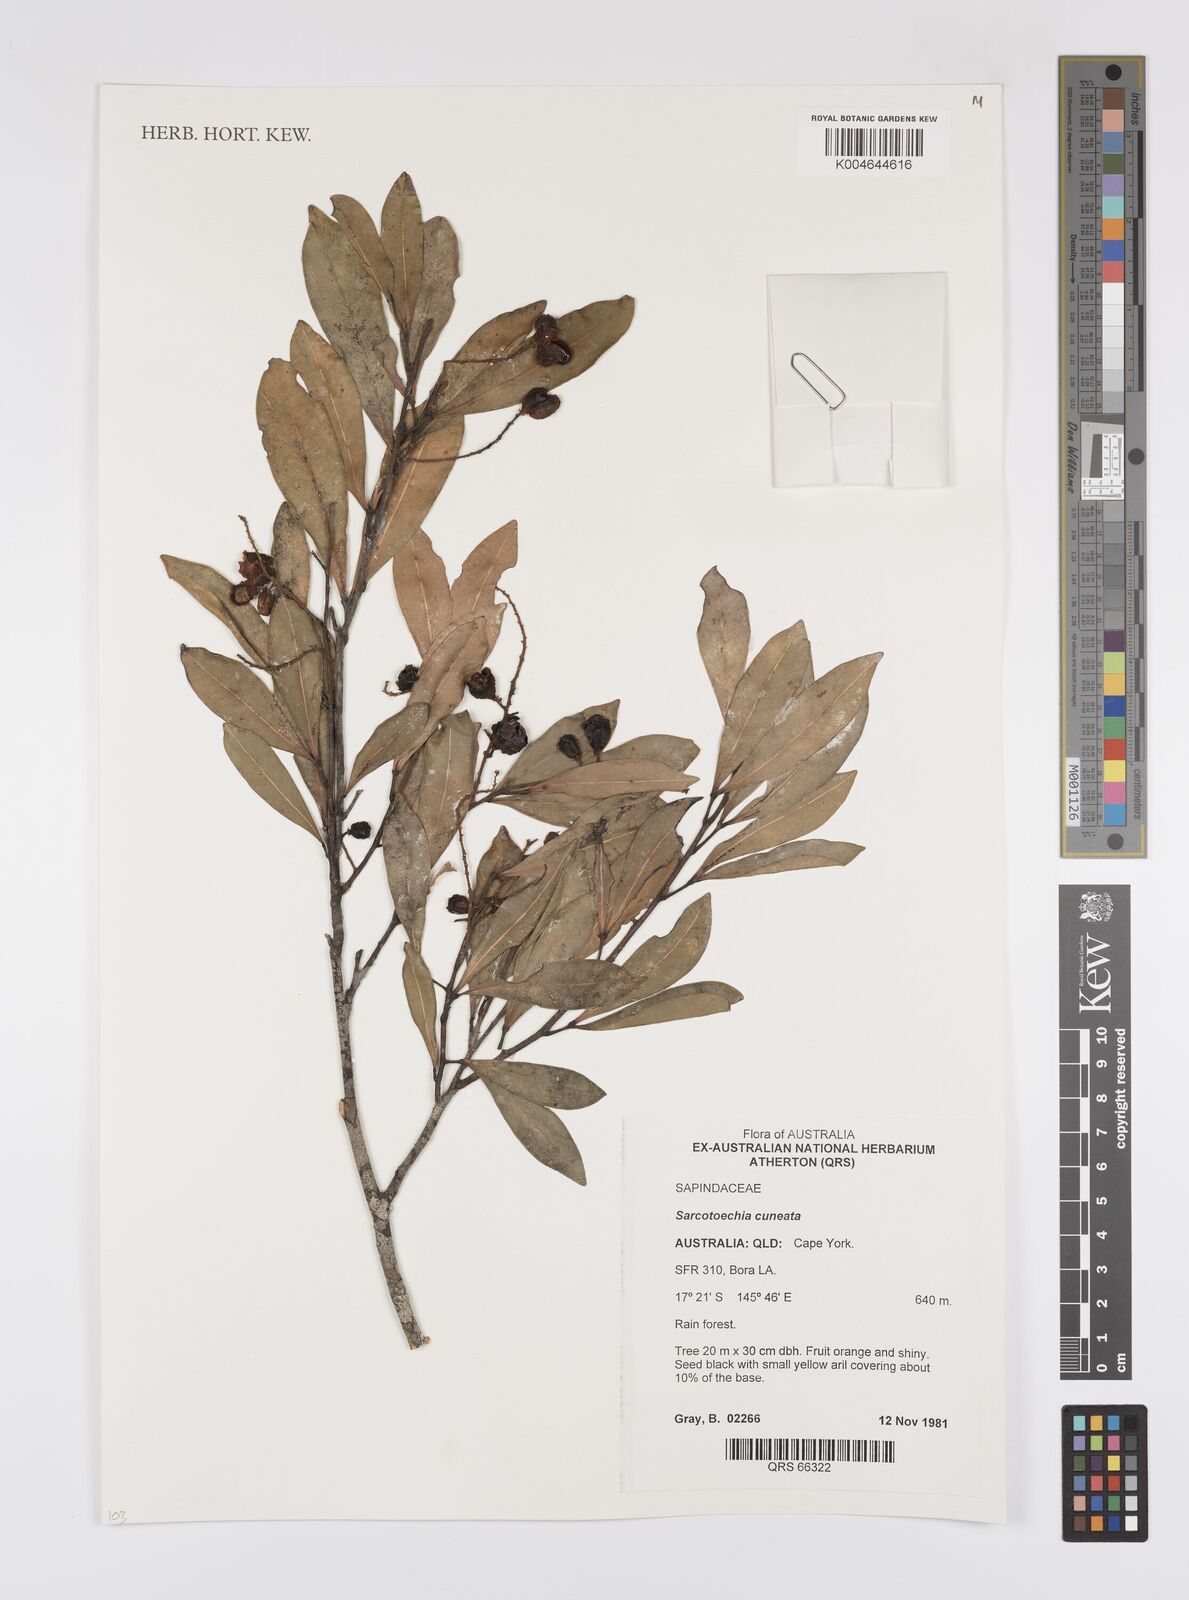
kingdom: Plantae
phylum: Tracheophyta
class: Magnoliopsida
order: Sapindales
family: Sapindaceae
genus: Sarcotoechia
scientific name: Sarcotoechia cuneata
